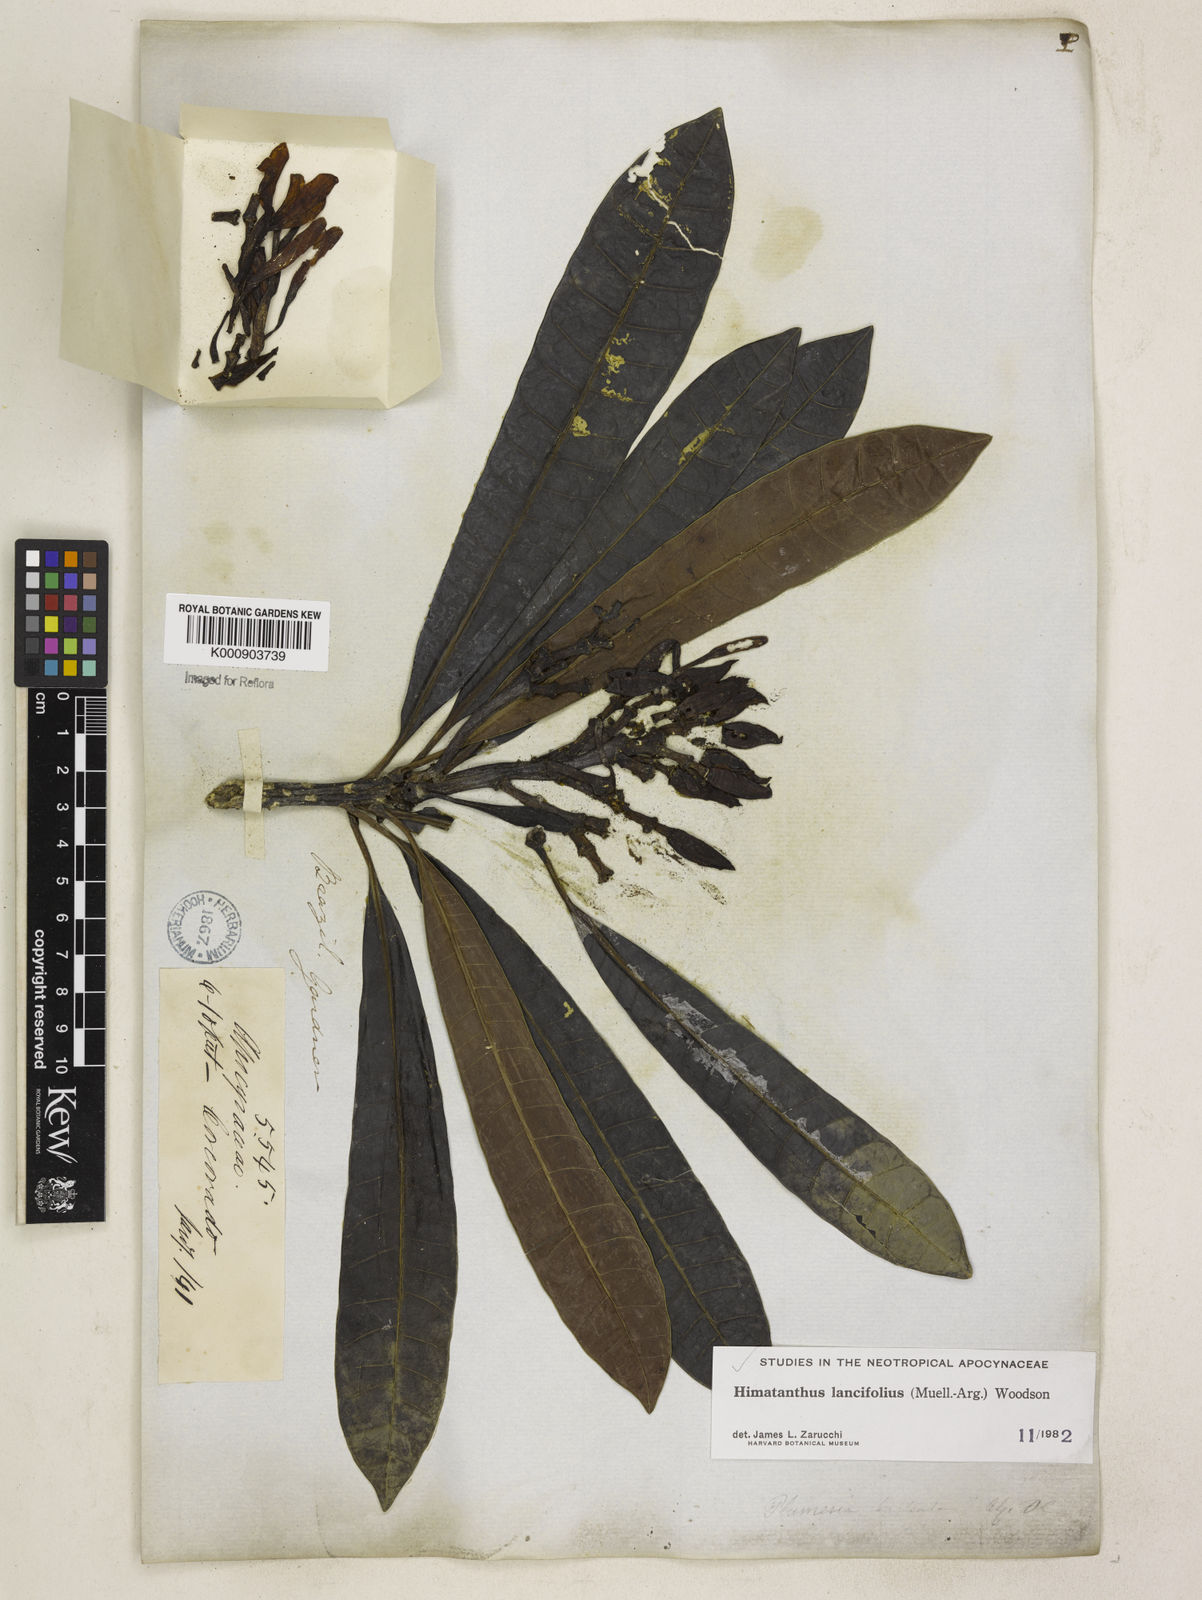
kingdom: Plantae
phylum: Tracheophyta
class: Magnoliopsida
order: Gentianales
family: Apocynaceae
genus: Himatanthus
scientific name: Himatanthus
